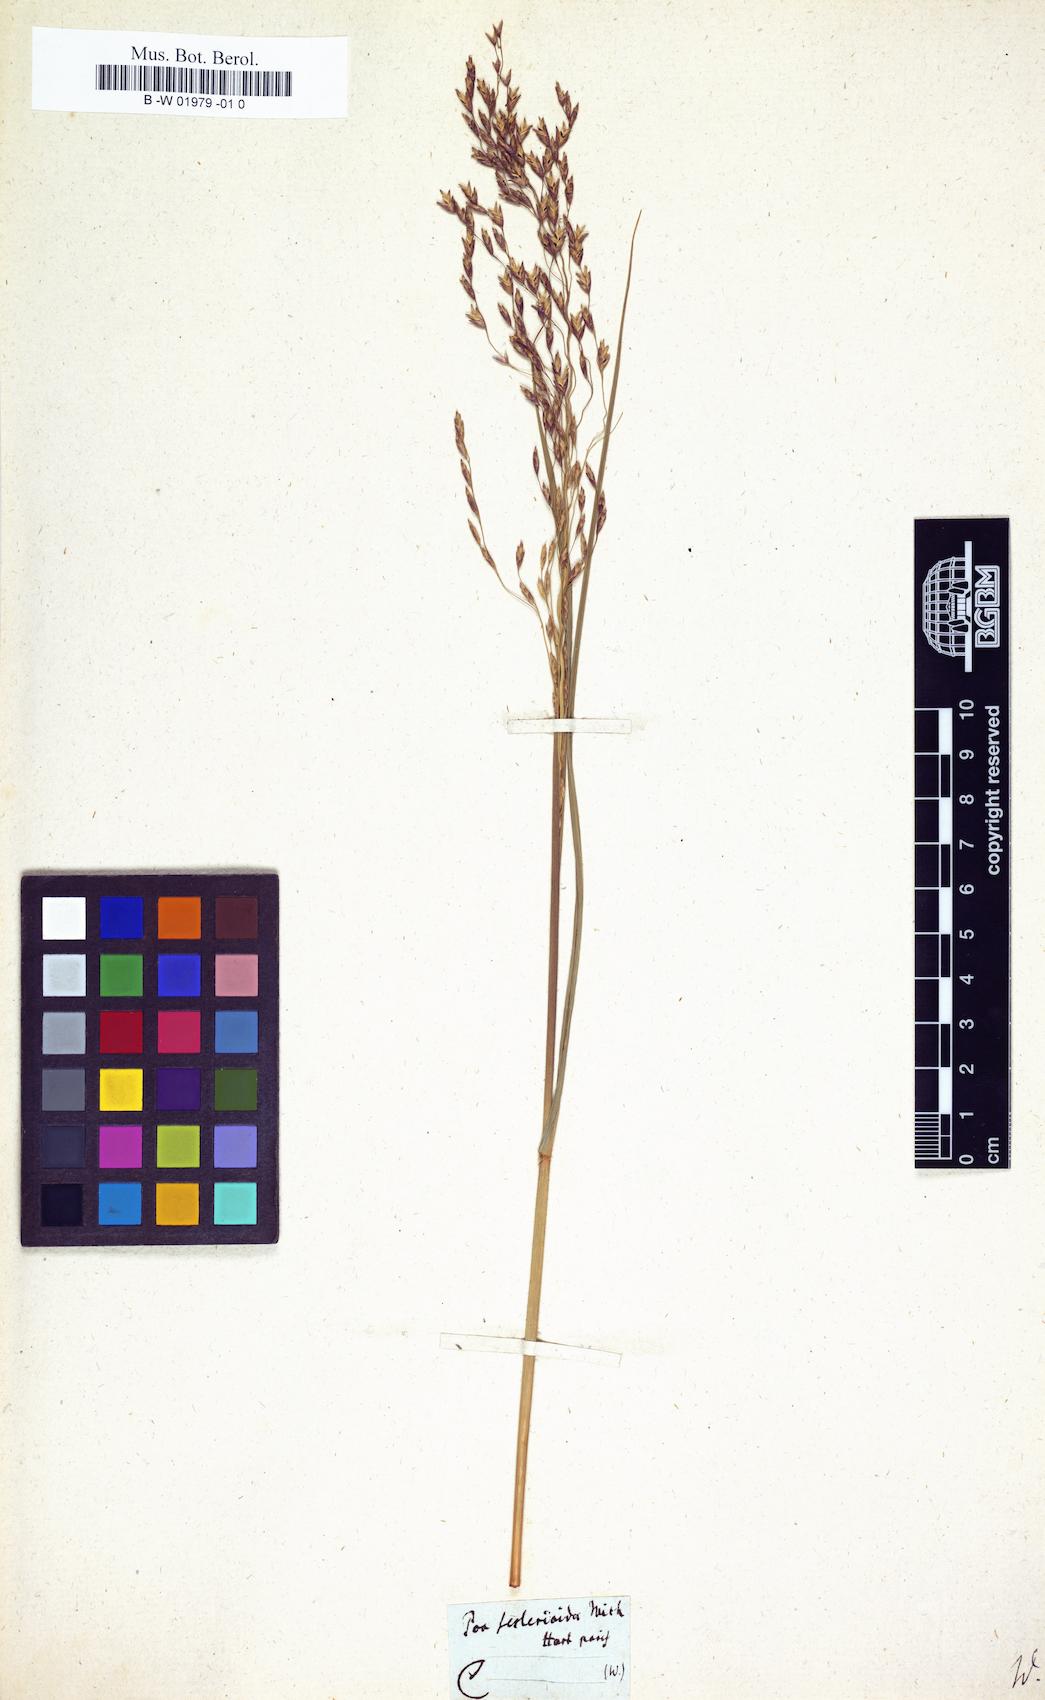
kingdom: Plantae
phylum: Tracheophyta
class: Liliopsida
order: Poales
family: Poaceae
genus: Poa
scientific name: Poa sesslerioides
